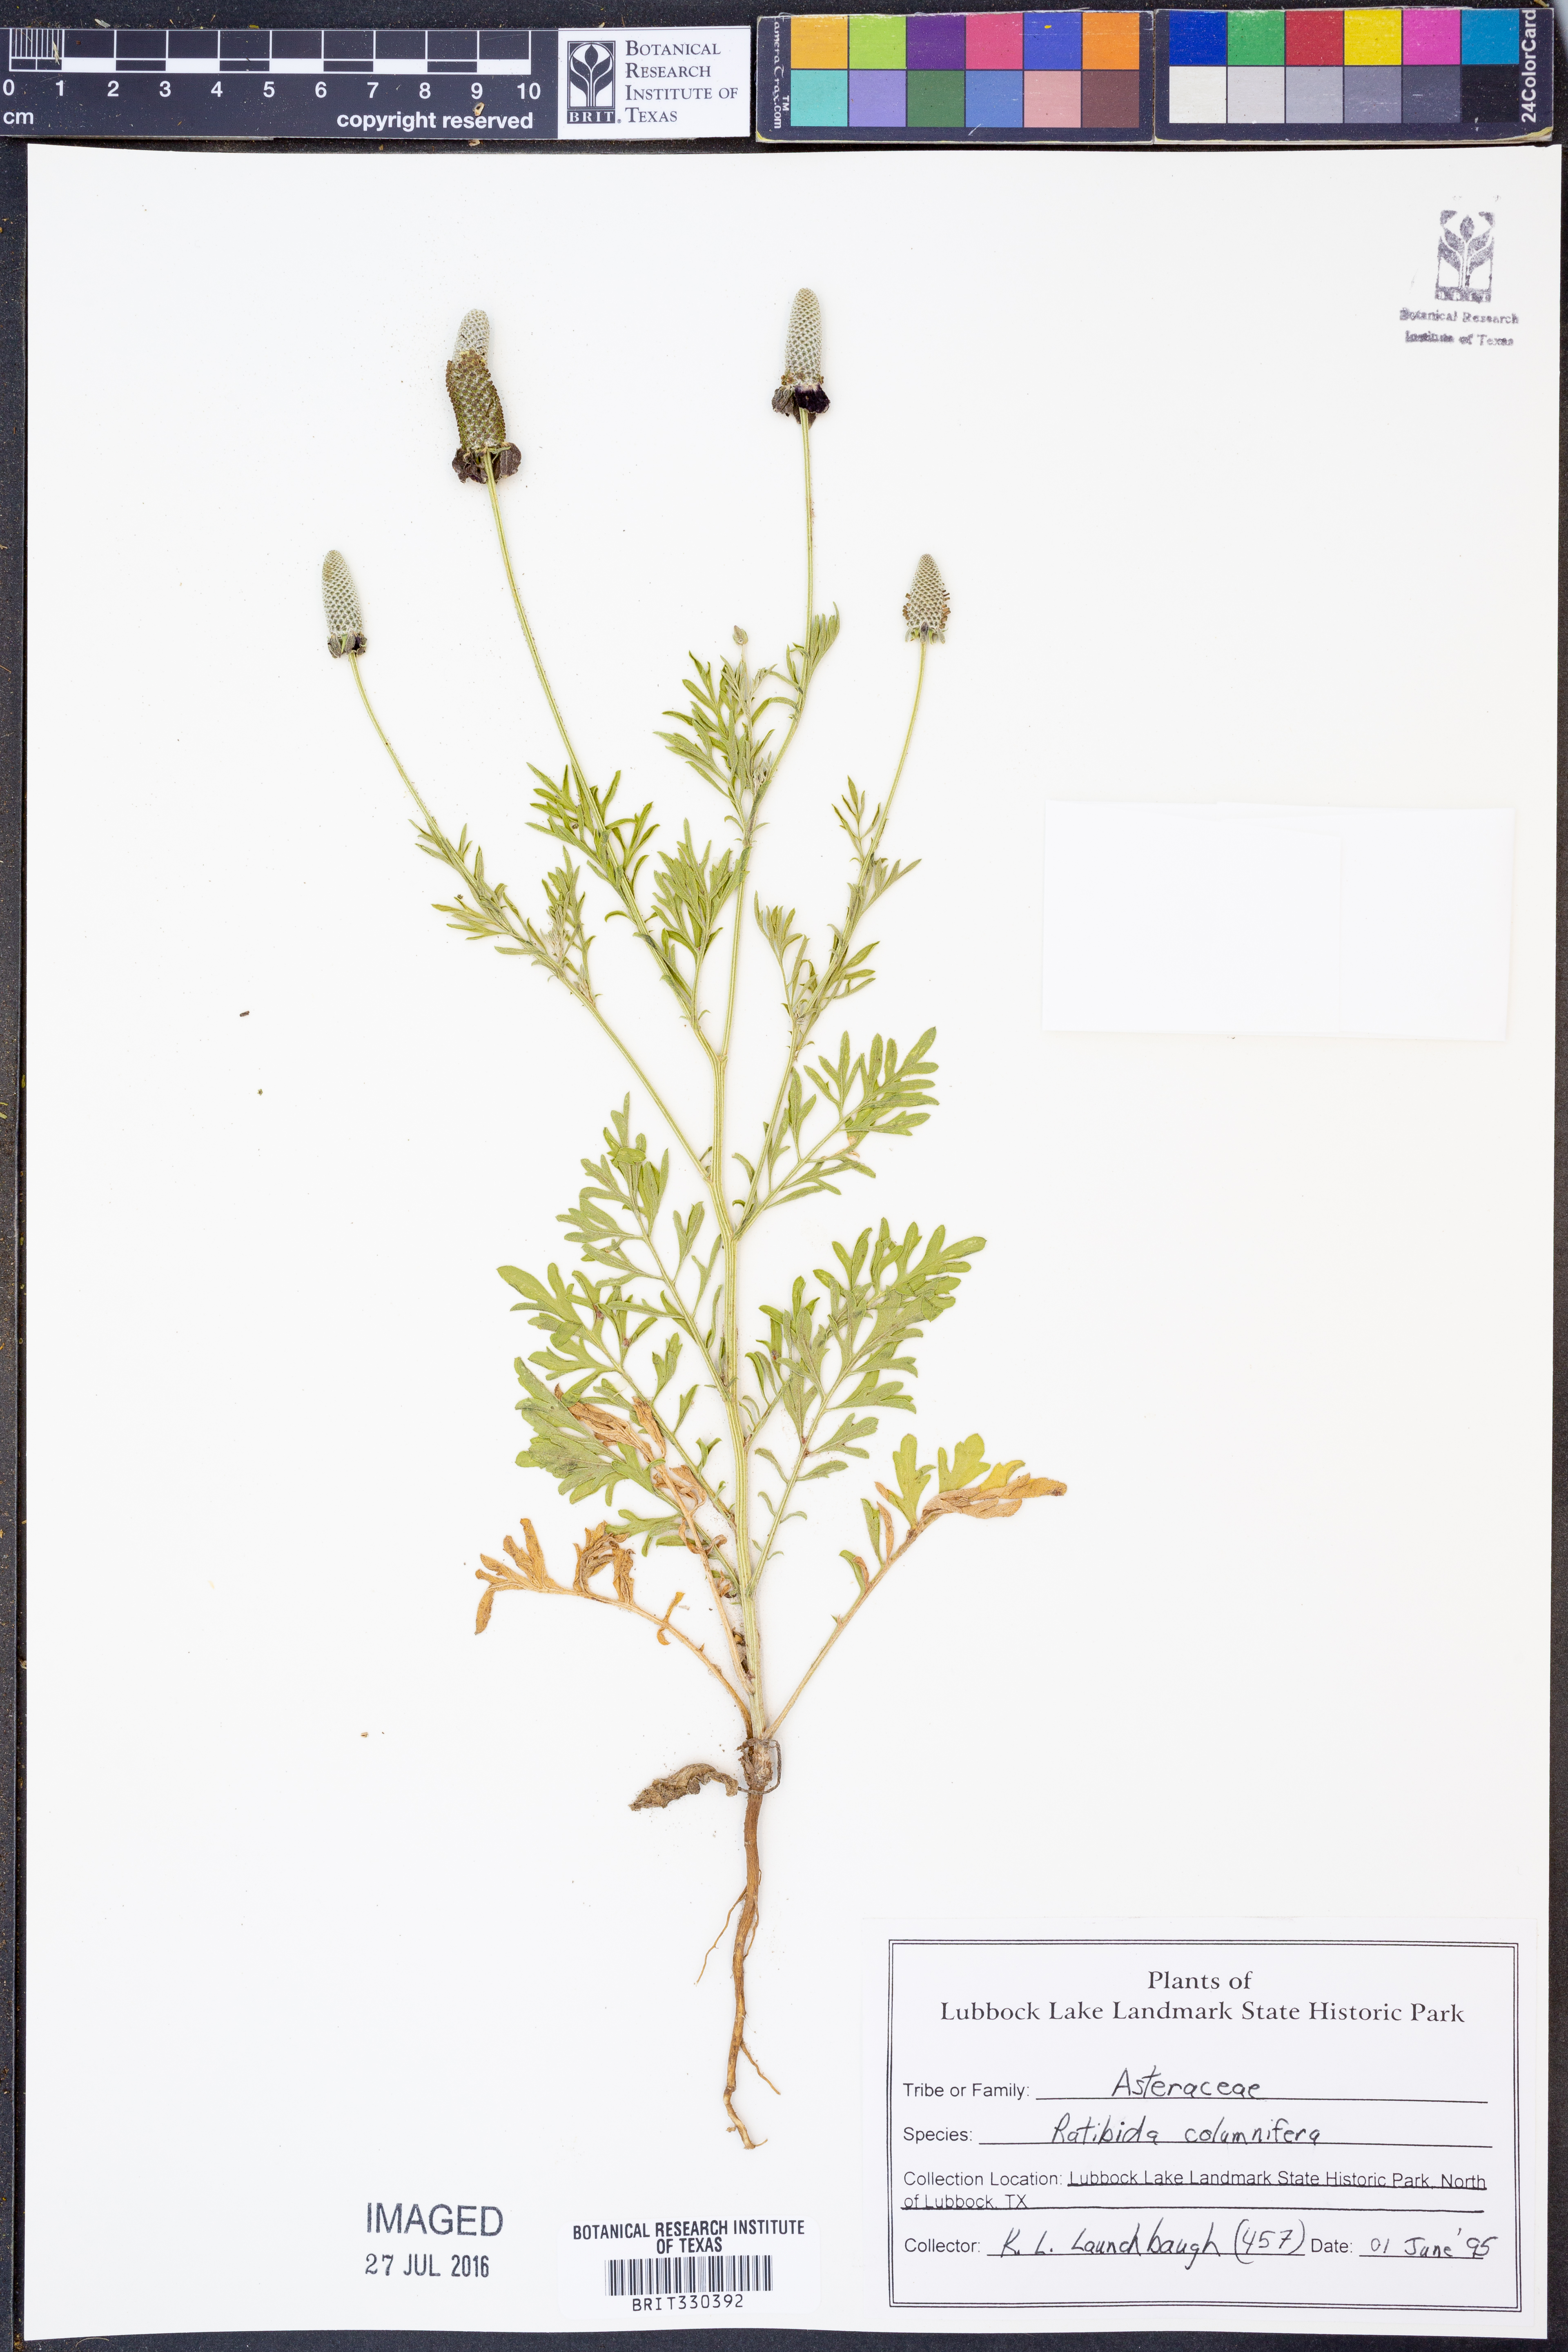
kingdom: Plantae
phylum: Tracheophyta
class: Magnoliopsida
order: Asterales
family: Asteraceae
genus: Ratibida
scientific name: Ratibida columnifera
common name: Prairie coneflower
